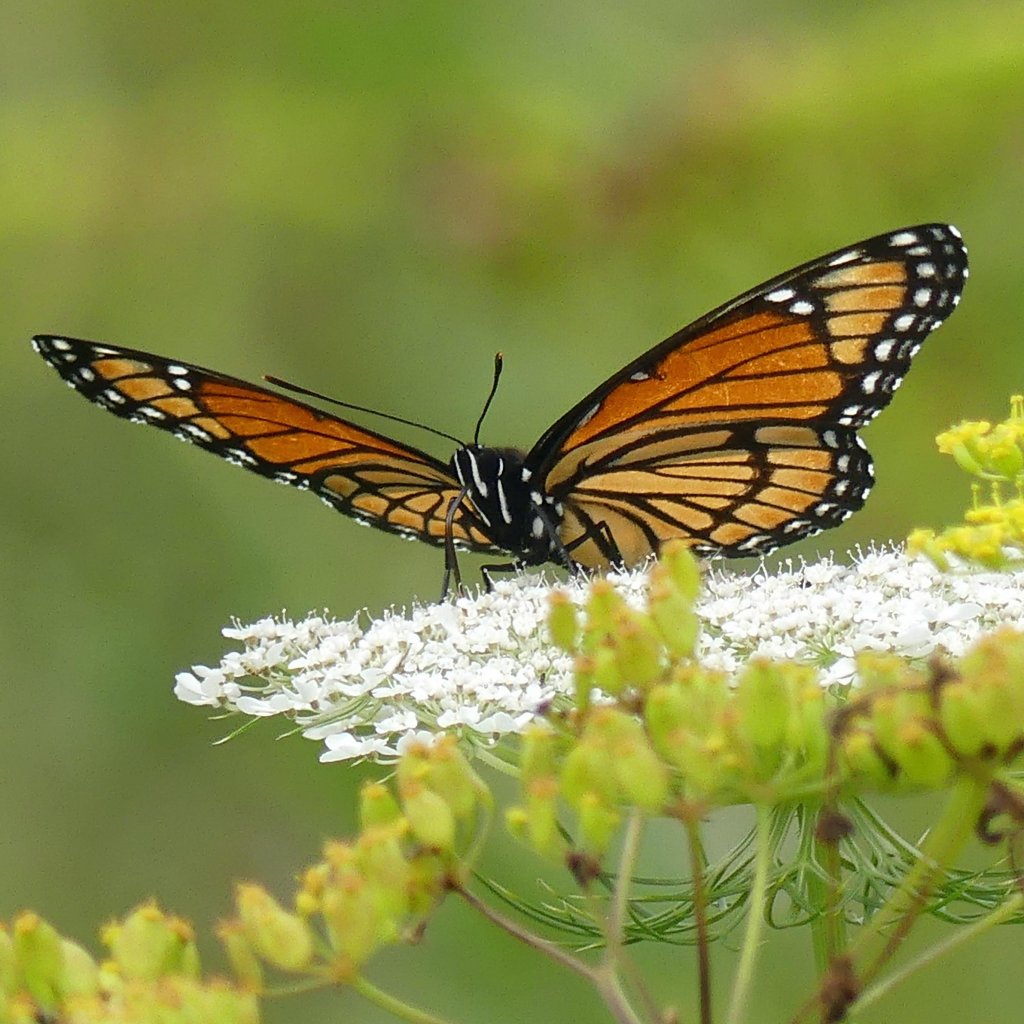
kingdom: Animalia
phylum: Arthropoda
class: Insecta
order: Lepidoptera
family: Nymphalidae
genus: Limenitis
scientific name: Limenitis archippus
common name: Viceroy
